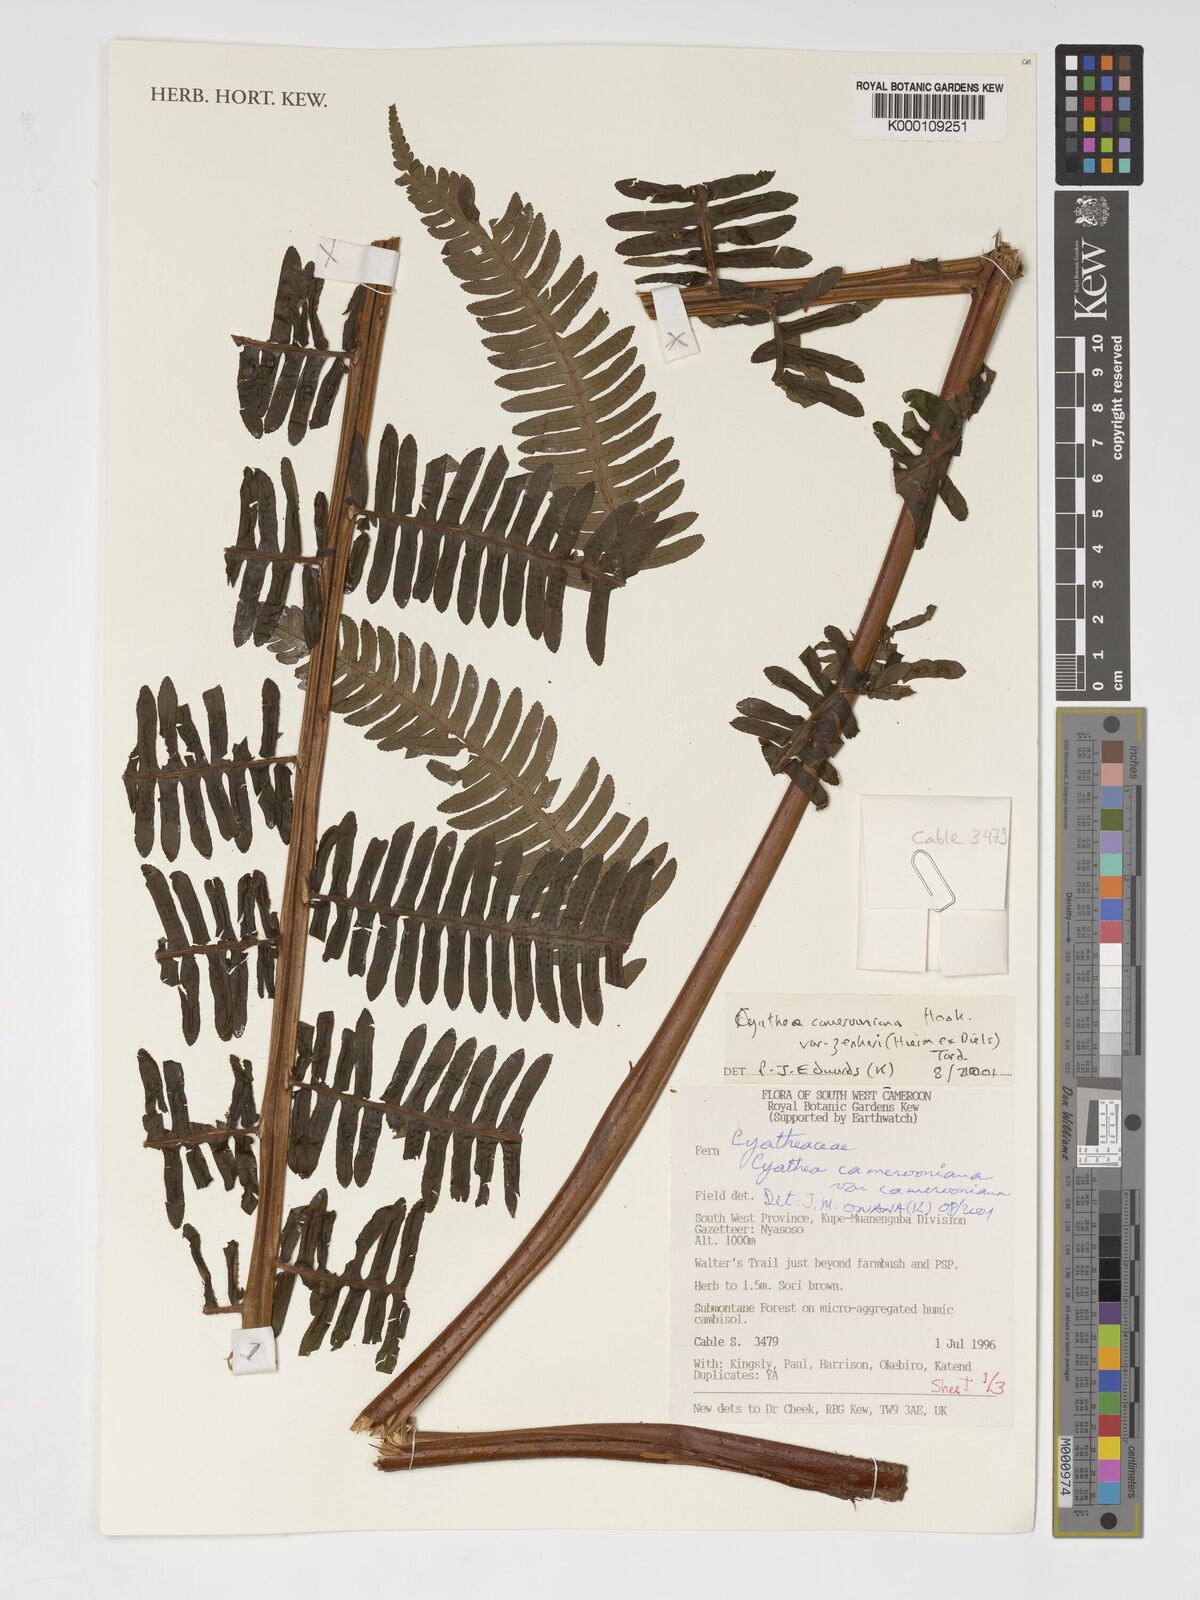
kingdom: Plantae
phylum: Tracheophyta
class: Polypodiopsida
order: Cyatheales
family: Cyatheaceae
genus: Alsophila
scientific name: Alsophila camerooniana
